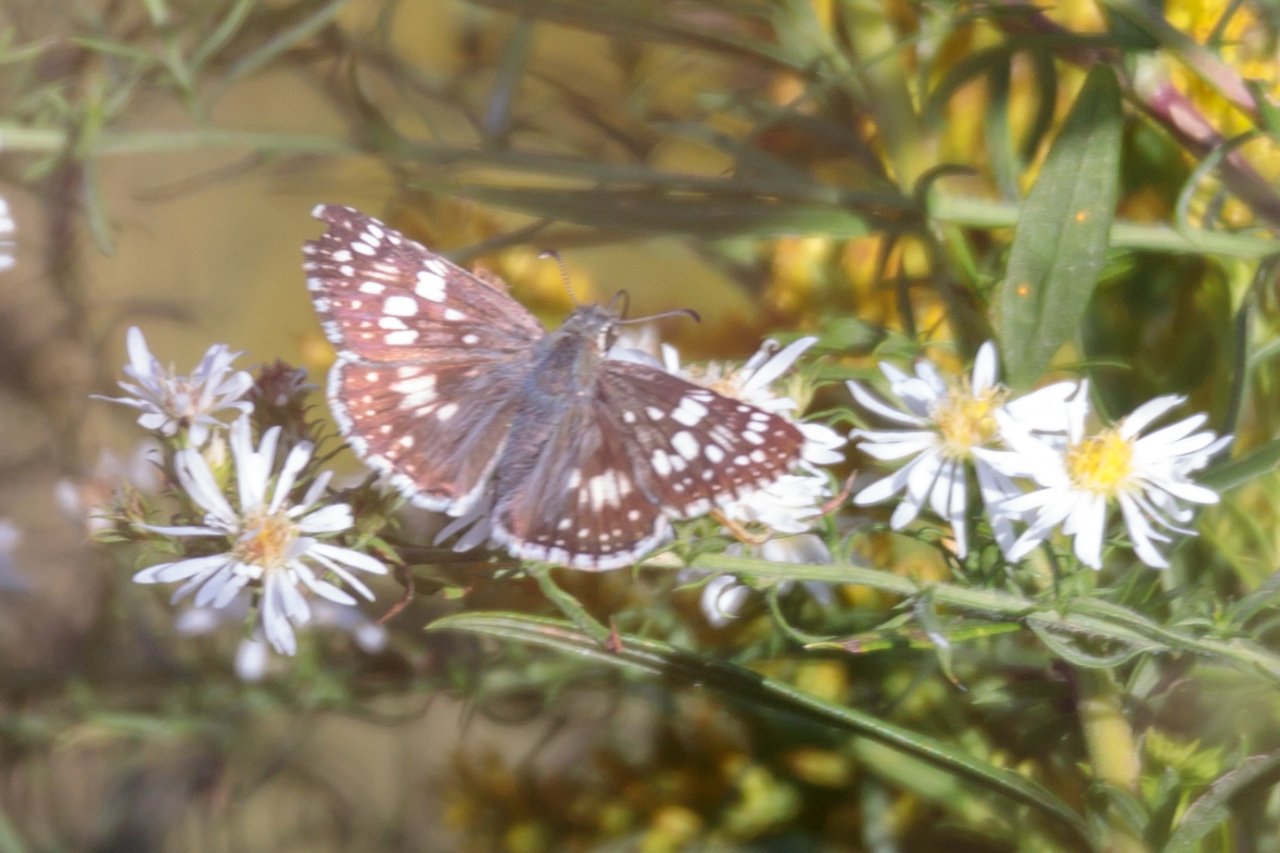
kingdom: Animalia
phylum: Arthropoda
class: Insecta
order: Lepidoptera
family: Hesperiidae
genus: Pyrgus
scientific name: Pyrgus communis
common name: Common Checkered-Skipper
